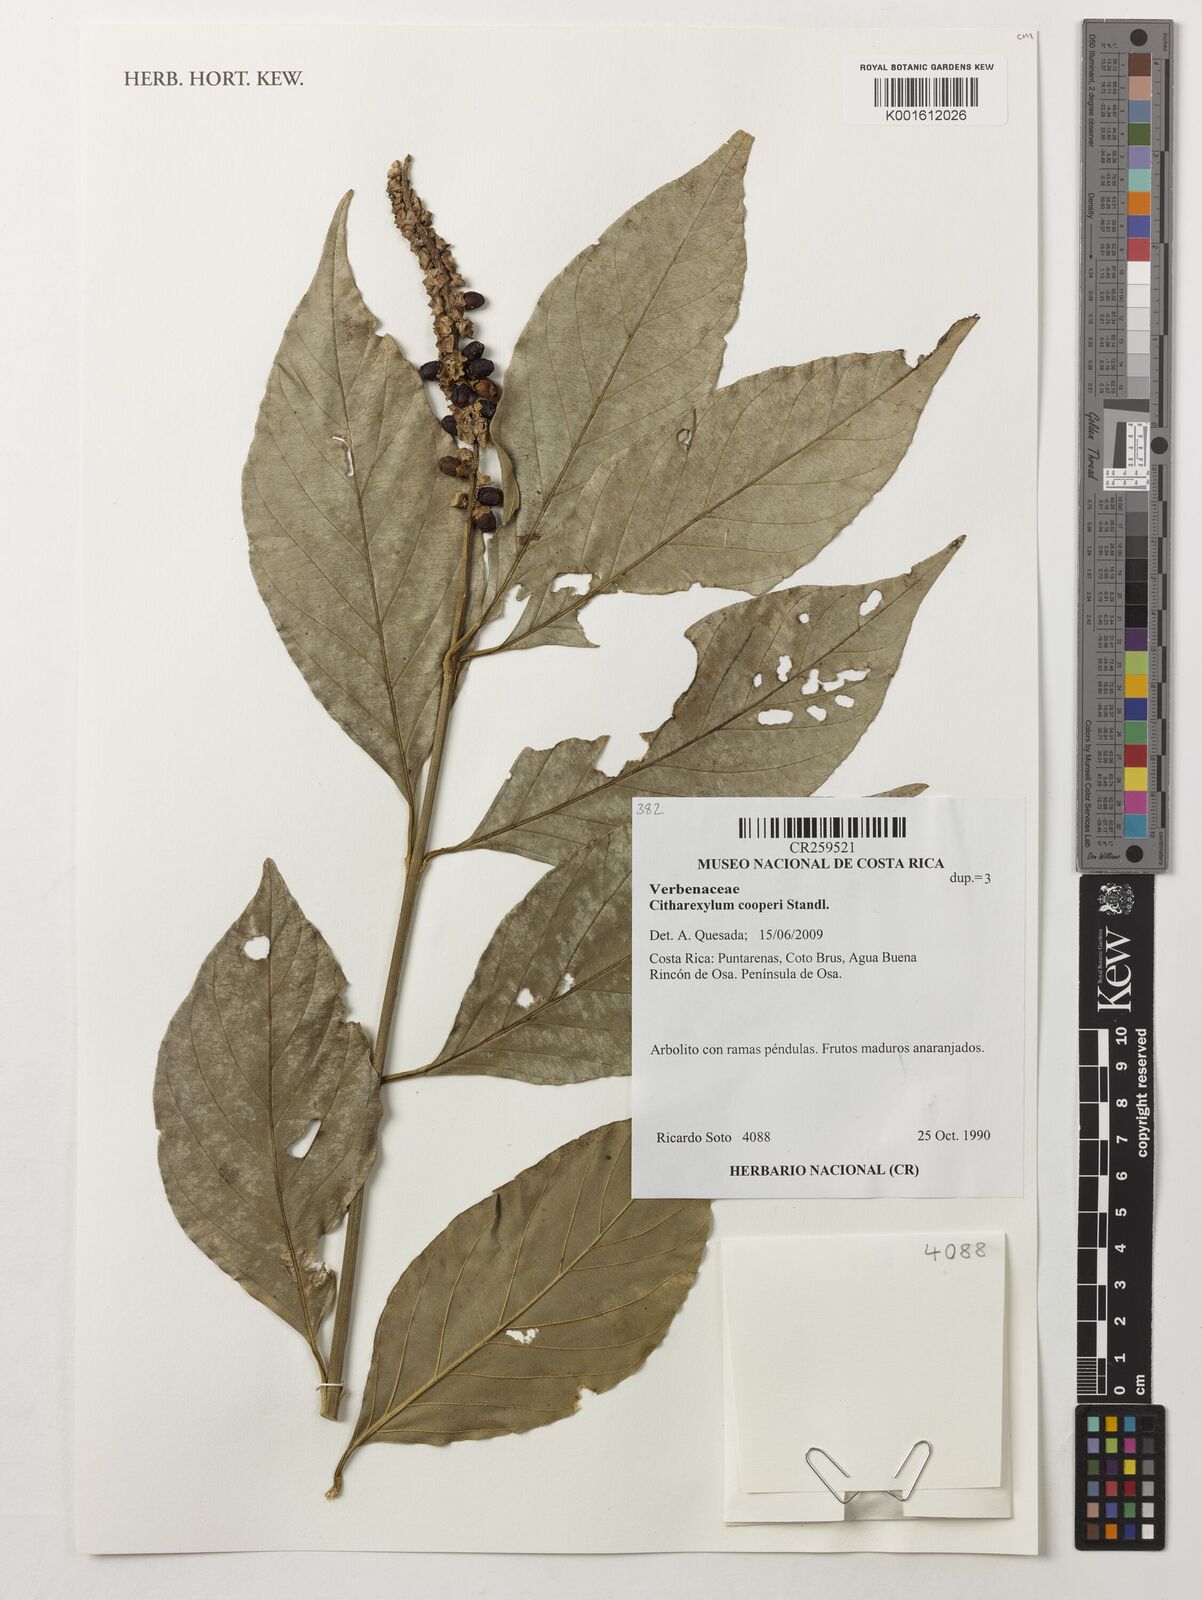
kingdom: Plantae
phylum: Tracheophyta
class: Magnoliopsida
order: Lamiales
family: Verbenaceae
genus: Citharexylum
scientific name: Citharexylum cooperi
